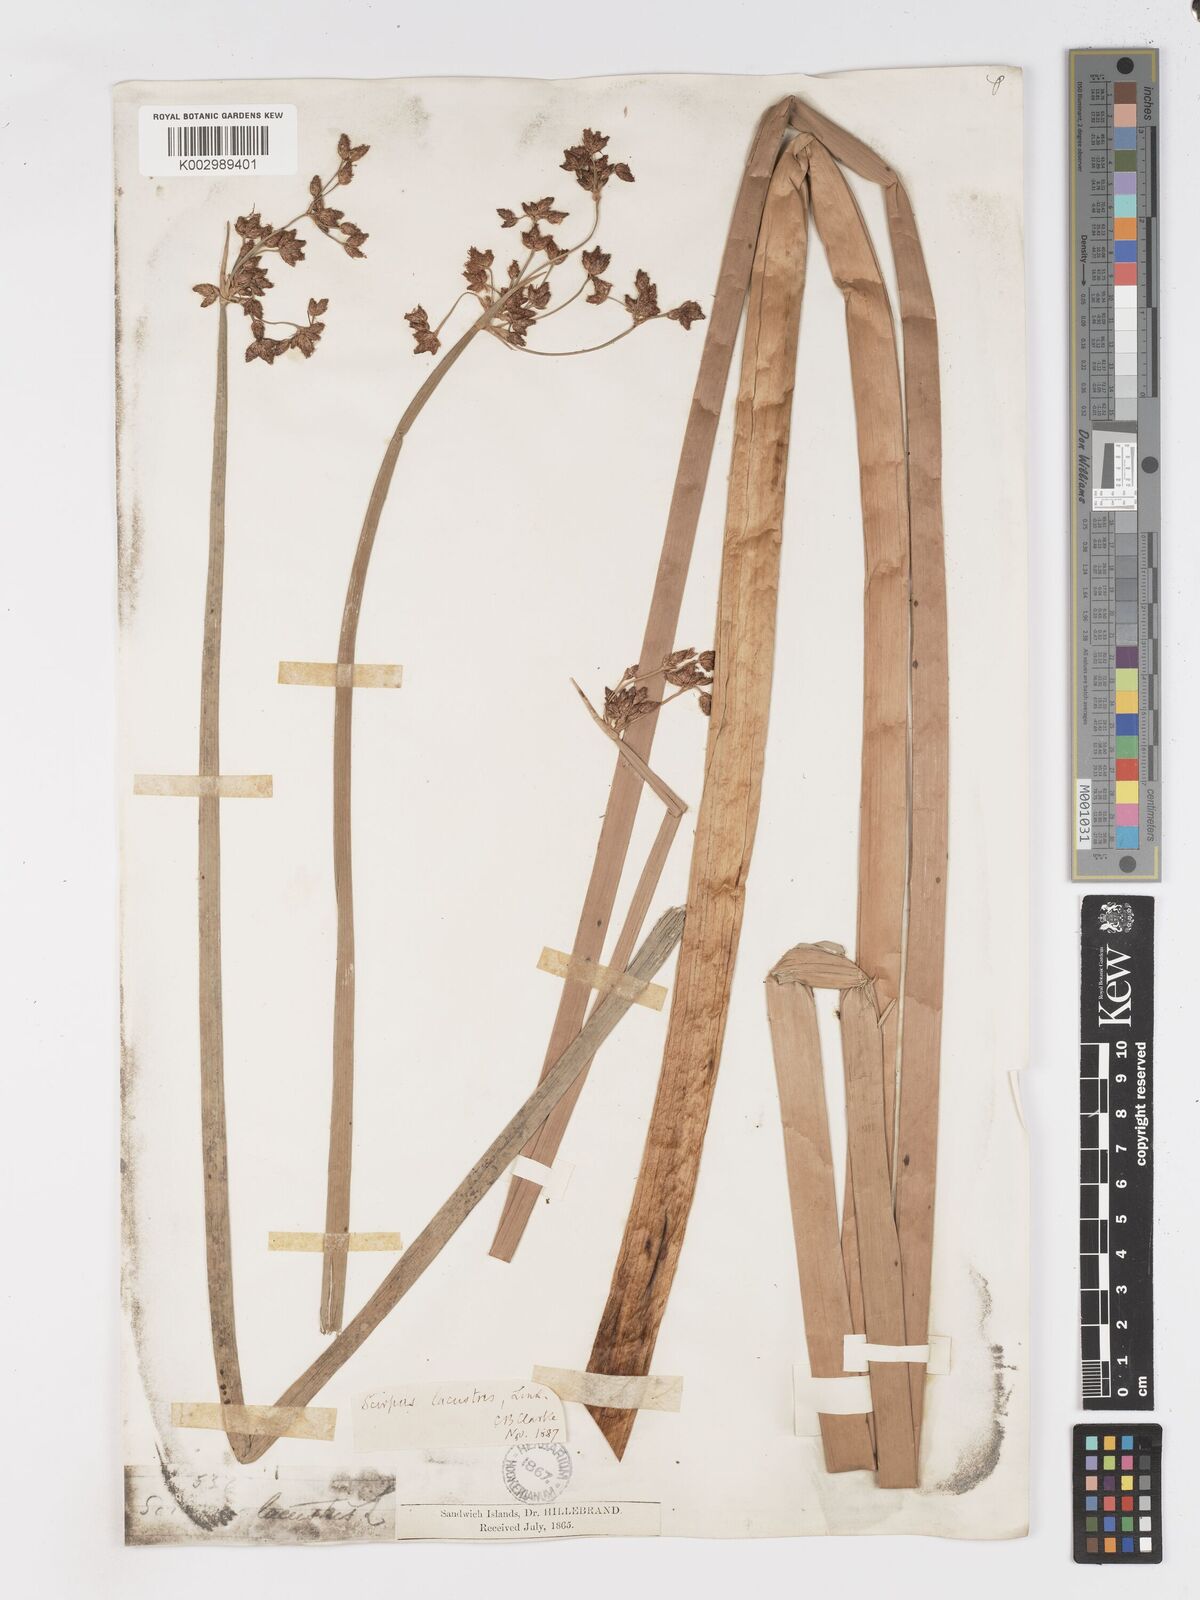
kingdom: Plantae
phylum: Tracheophyta
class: Liliopsida
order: Poales
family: Cyperaceae
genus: Schoenoplectus
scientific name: Schoenoplectus californicus
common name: California bulrush
